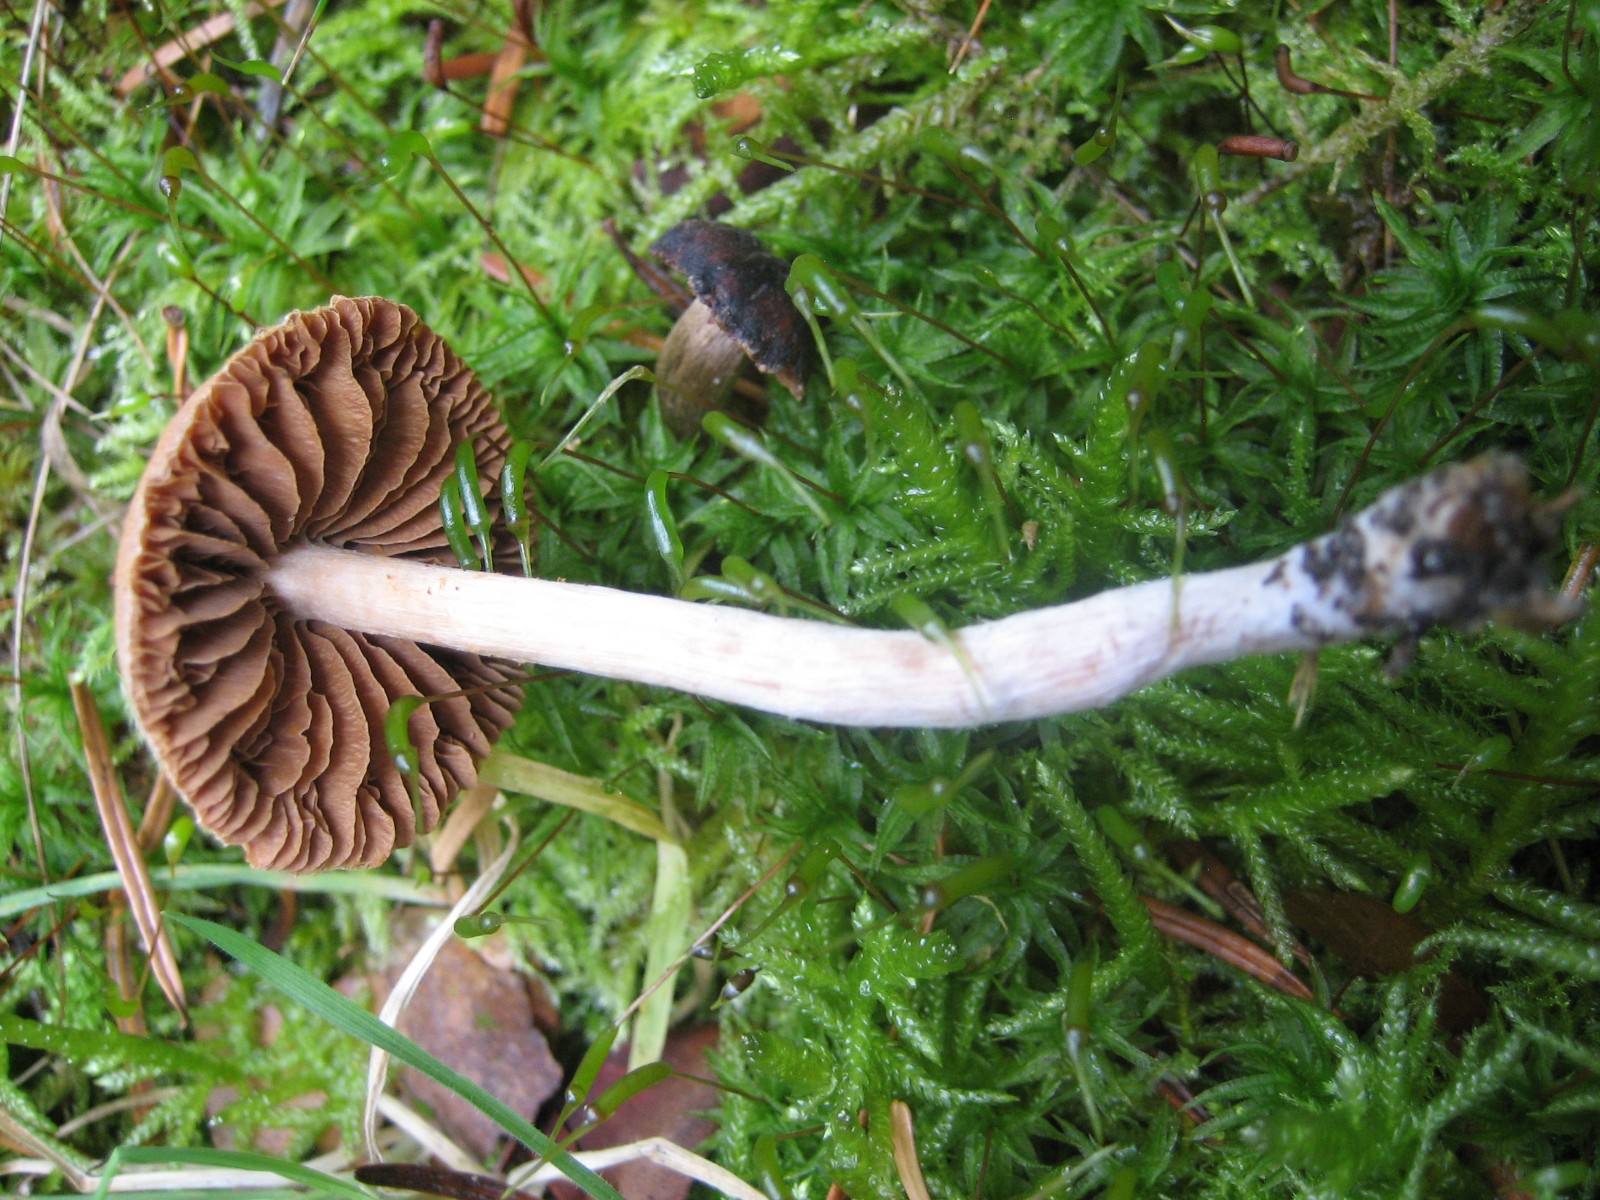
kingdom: Fungi
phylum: Basidiomycota
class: Agaricomycetes
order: Agaricales
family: Cortinariaceae
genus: Cortinarius
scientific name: Cortinarius
